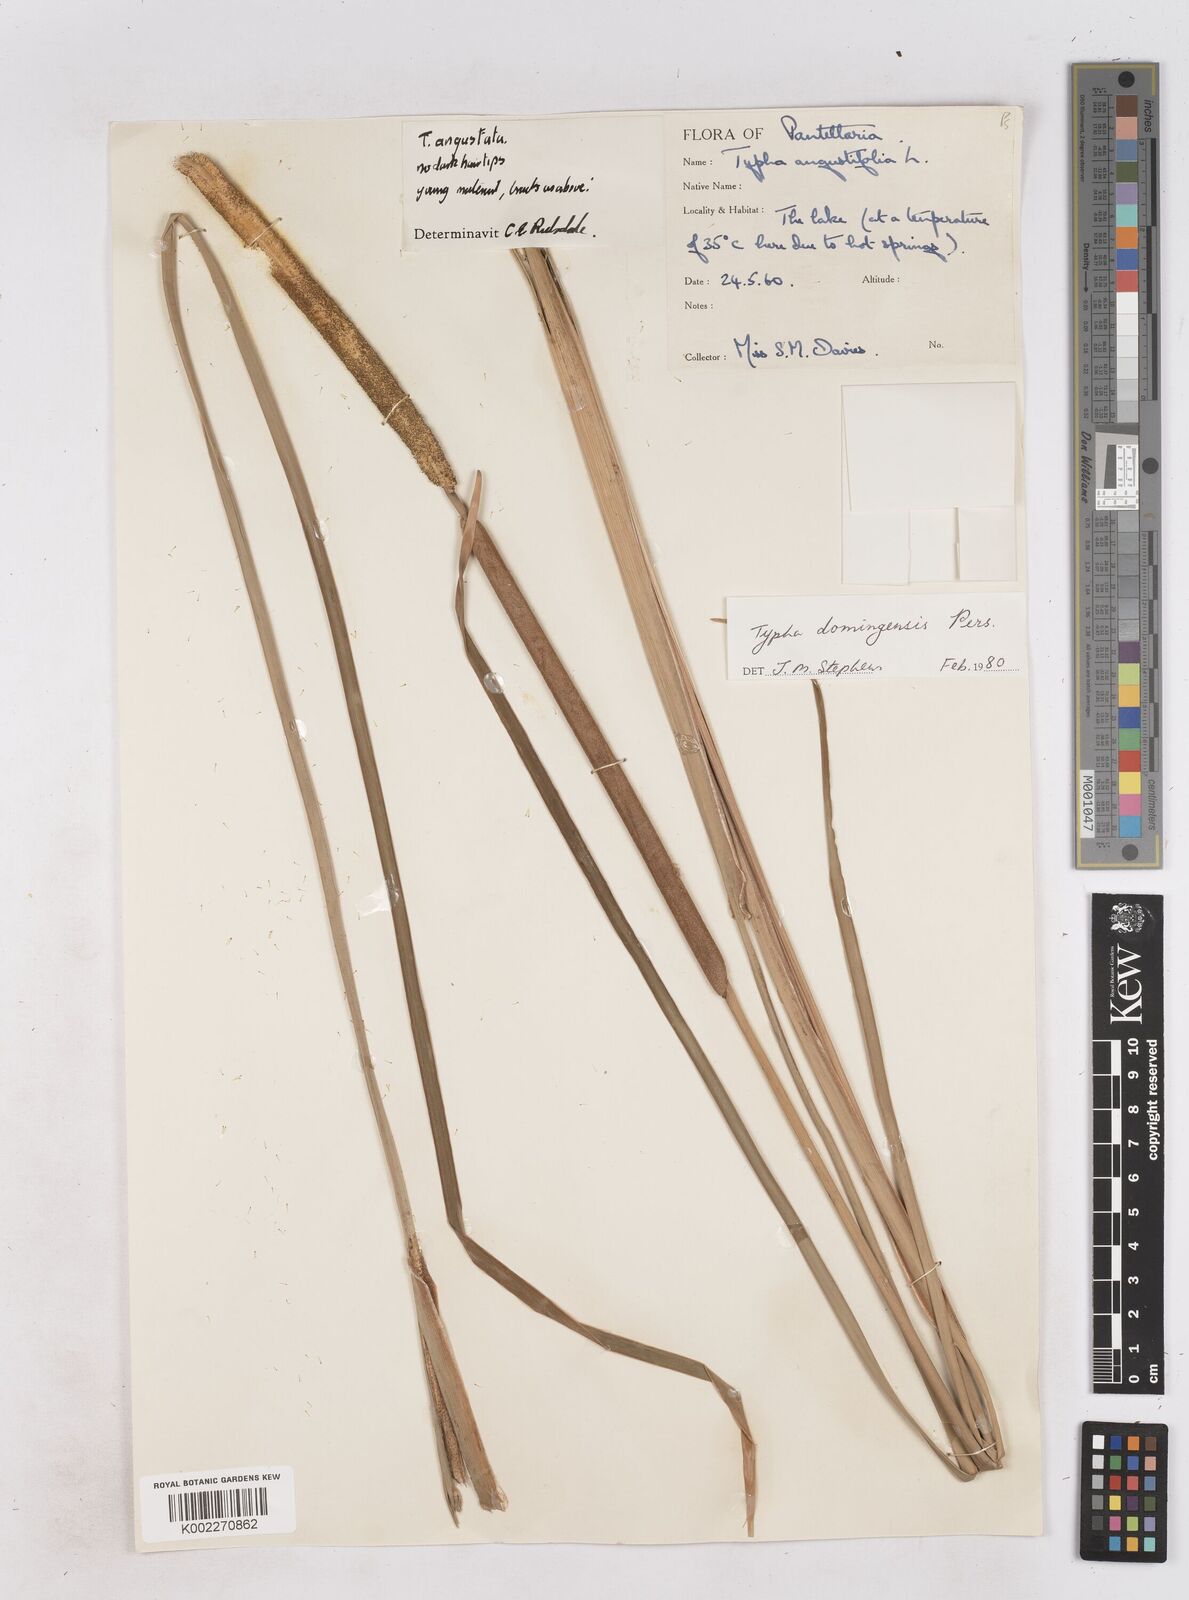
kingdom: Plantae
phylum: Tracheophyta
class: Liliopsida
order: Poales
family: Typhaceae
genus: Typha
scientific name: Typha domingensis
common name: Southern cattail
